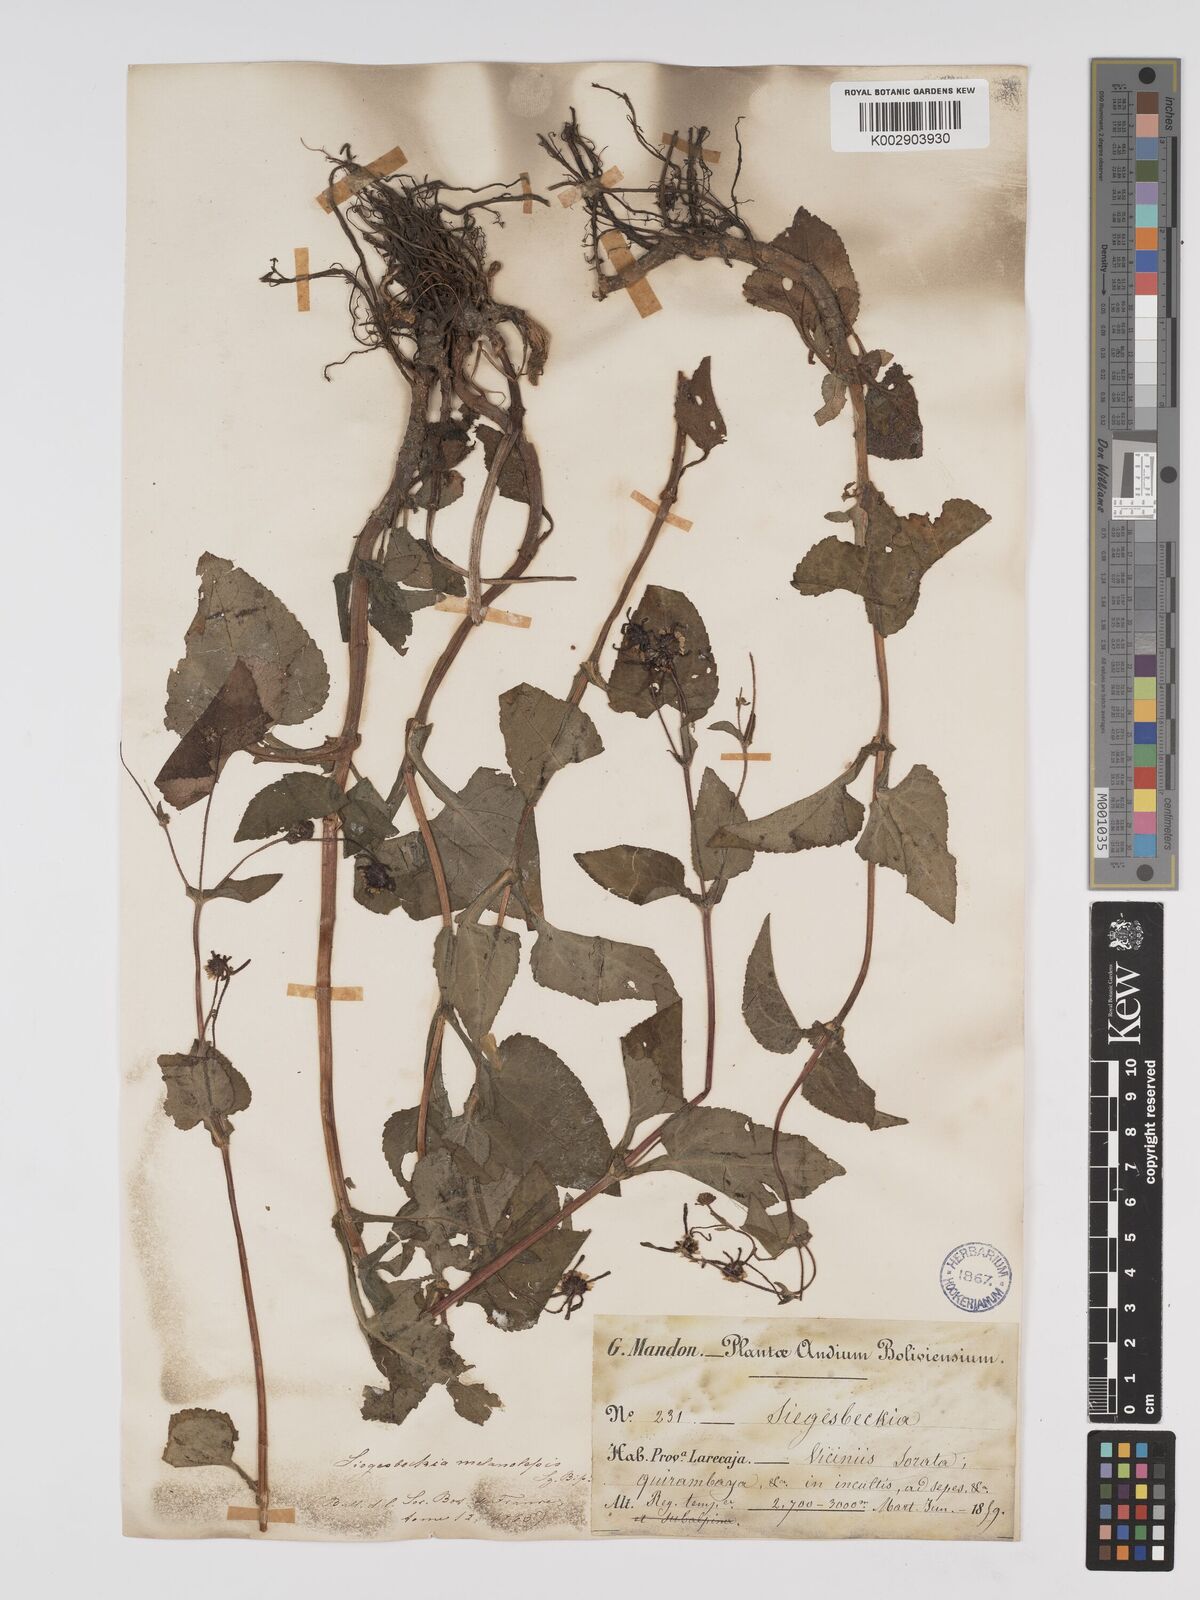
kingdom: Plantae
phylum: Tracheophyta
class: Magnoliopsida
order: Asterales
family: Asteraceae
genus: Sigesbeckia
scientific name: Sigesbeckia orientalis
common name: Eastern st paul's-wort
